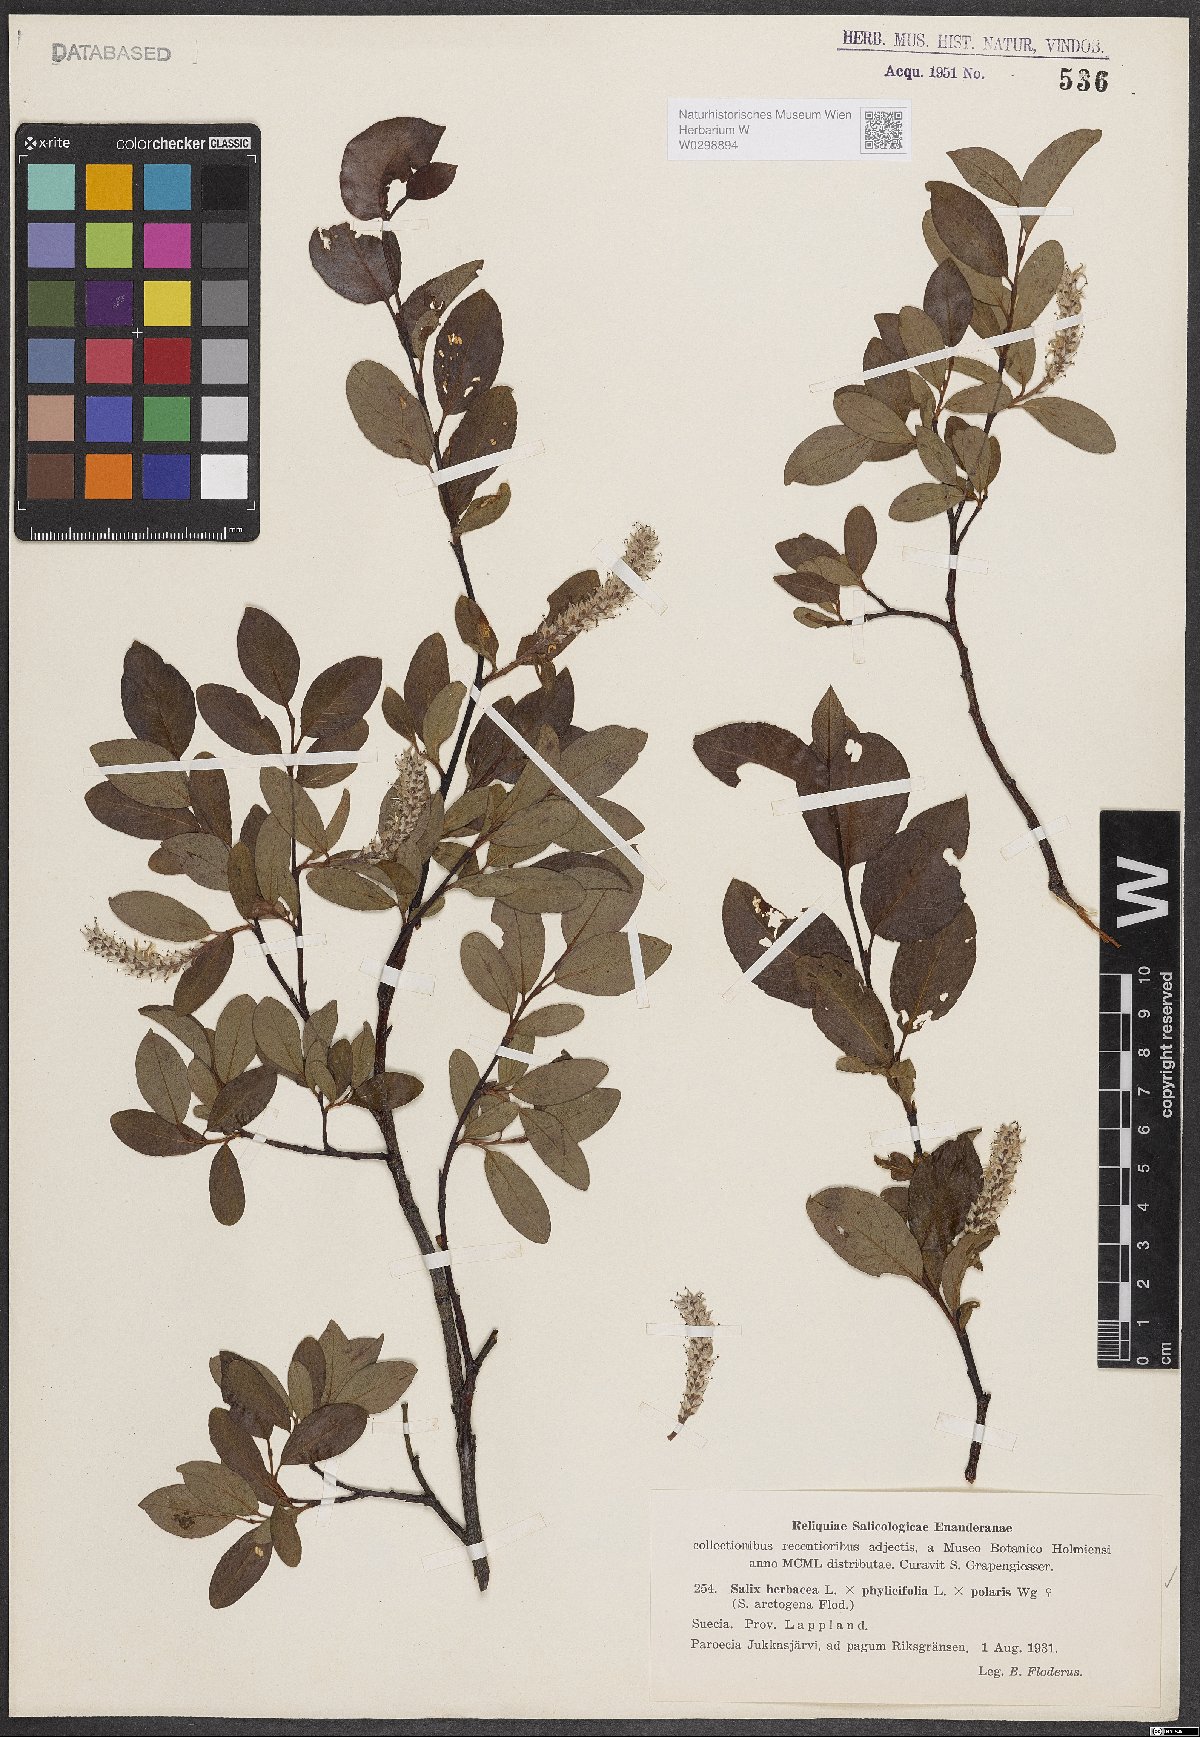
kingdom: Plantae
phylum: Tracheophyta
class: Magnoliopsida
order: Malpighiales
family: Salicaceae
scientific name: Salicaceae
